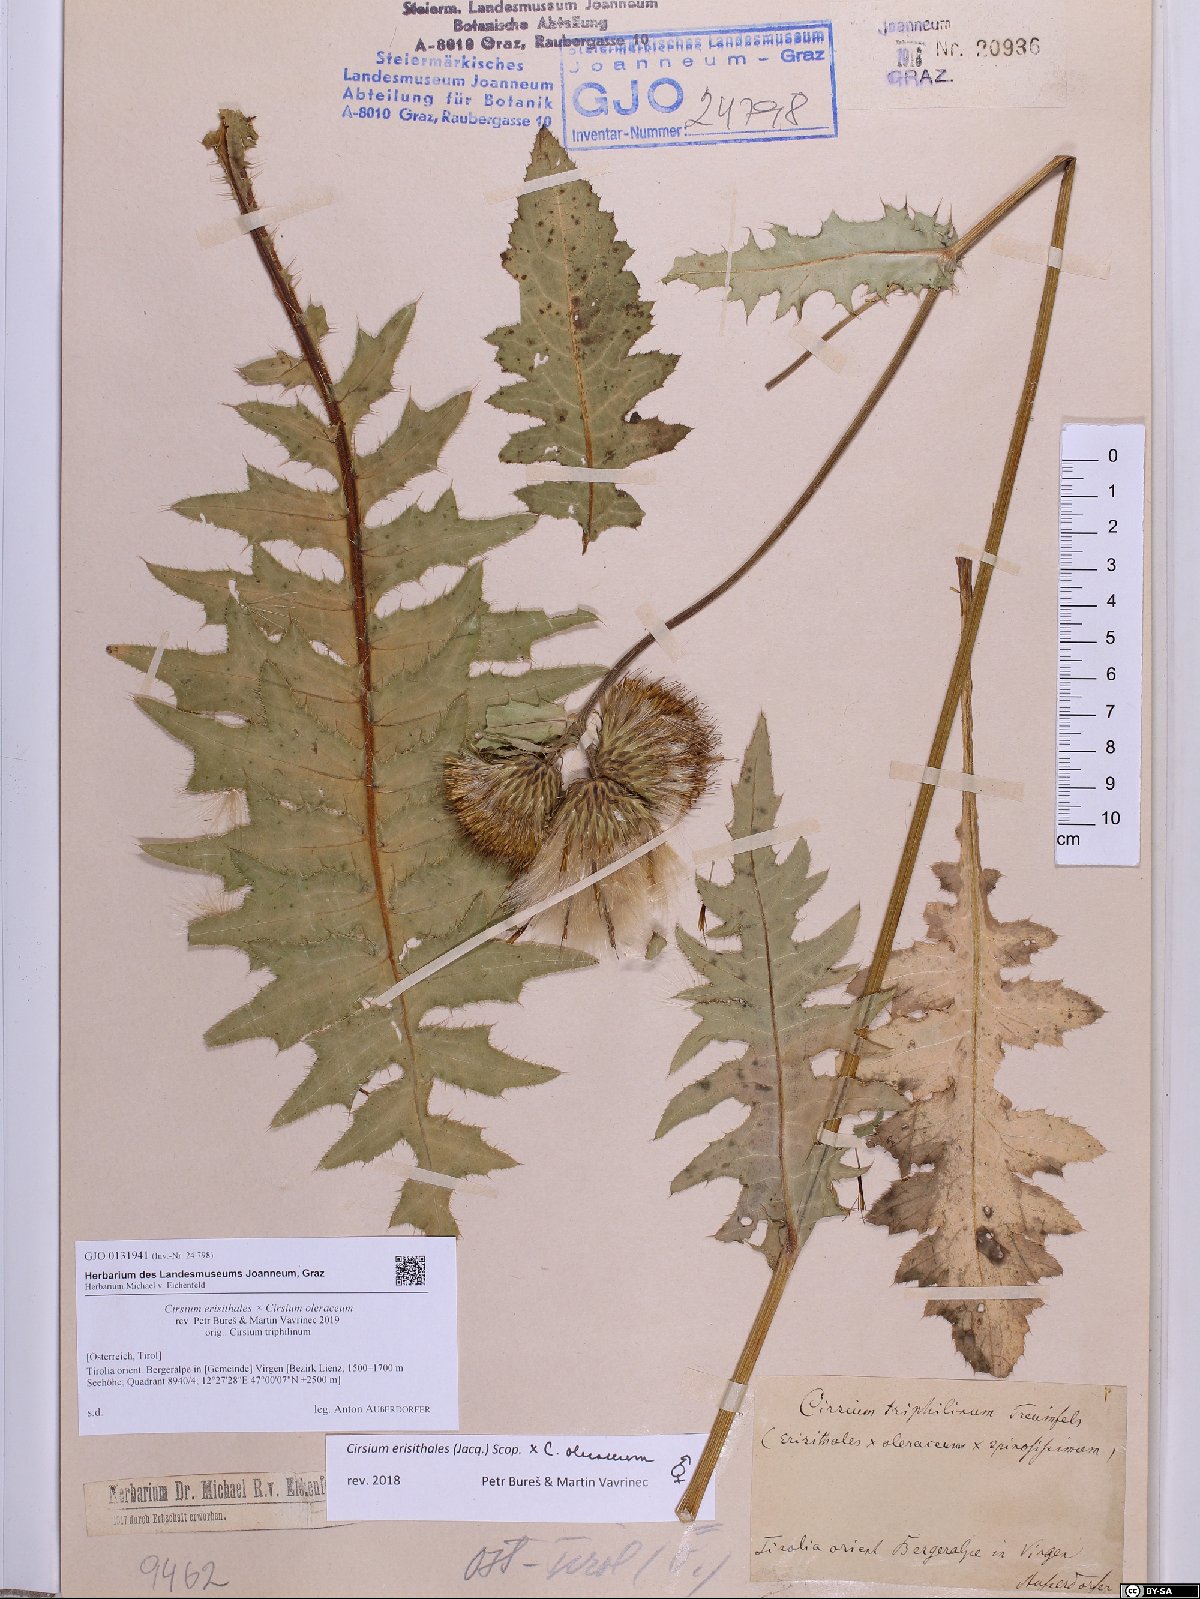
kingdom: Plantae
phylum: Tracheophyta
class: Magnoliopsida
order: Asterales
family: Asteraceae
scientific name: Asteraceae
